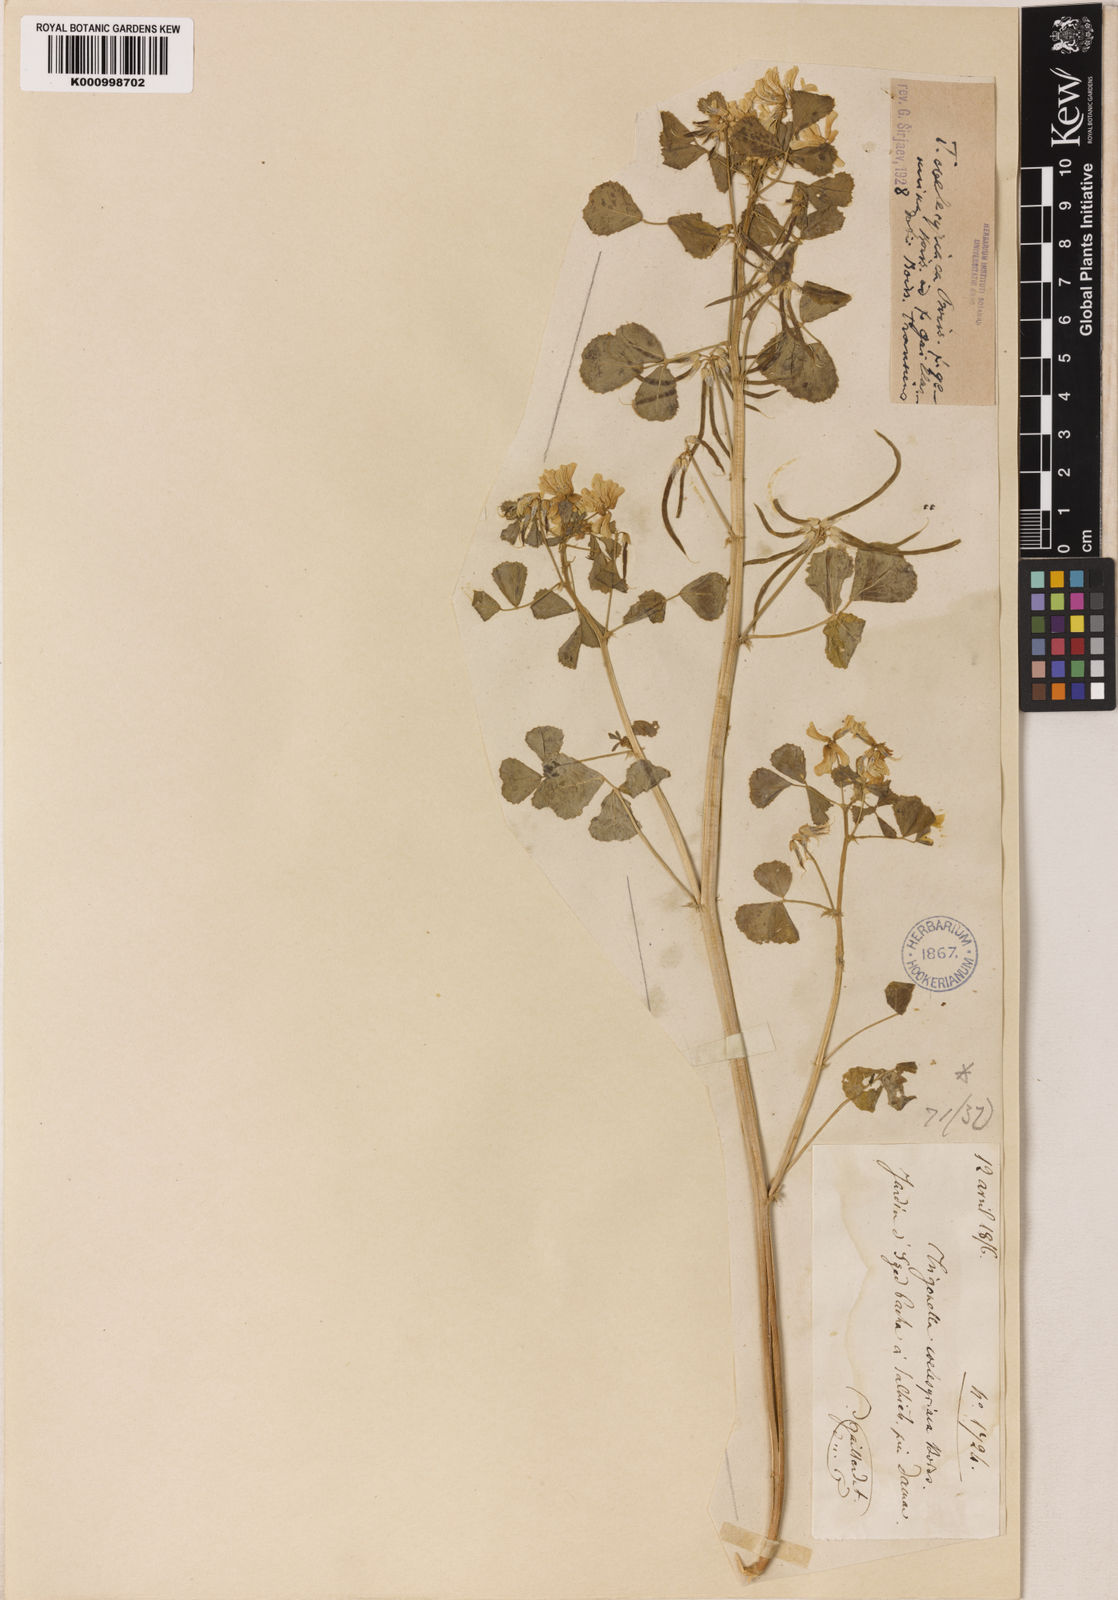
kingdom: Plantae
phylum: Tracheophyta
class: Magnoliopsida
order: Fabales
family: Fabaceae
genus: Trigonella
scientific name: Trigonella caelesyriaca
